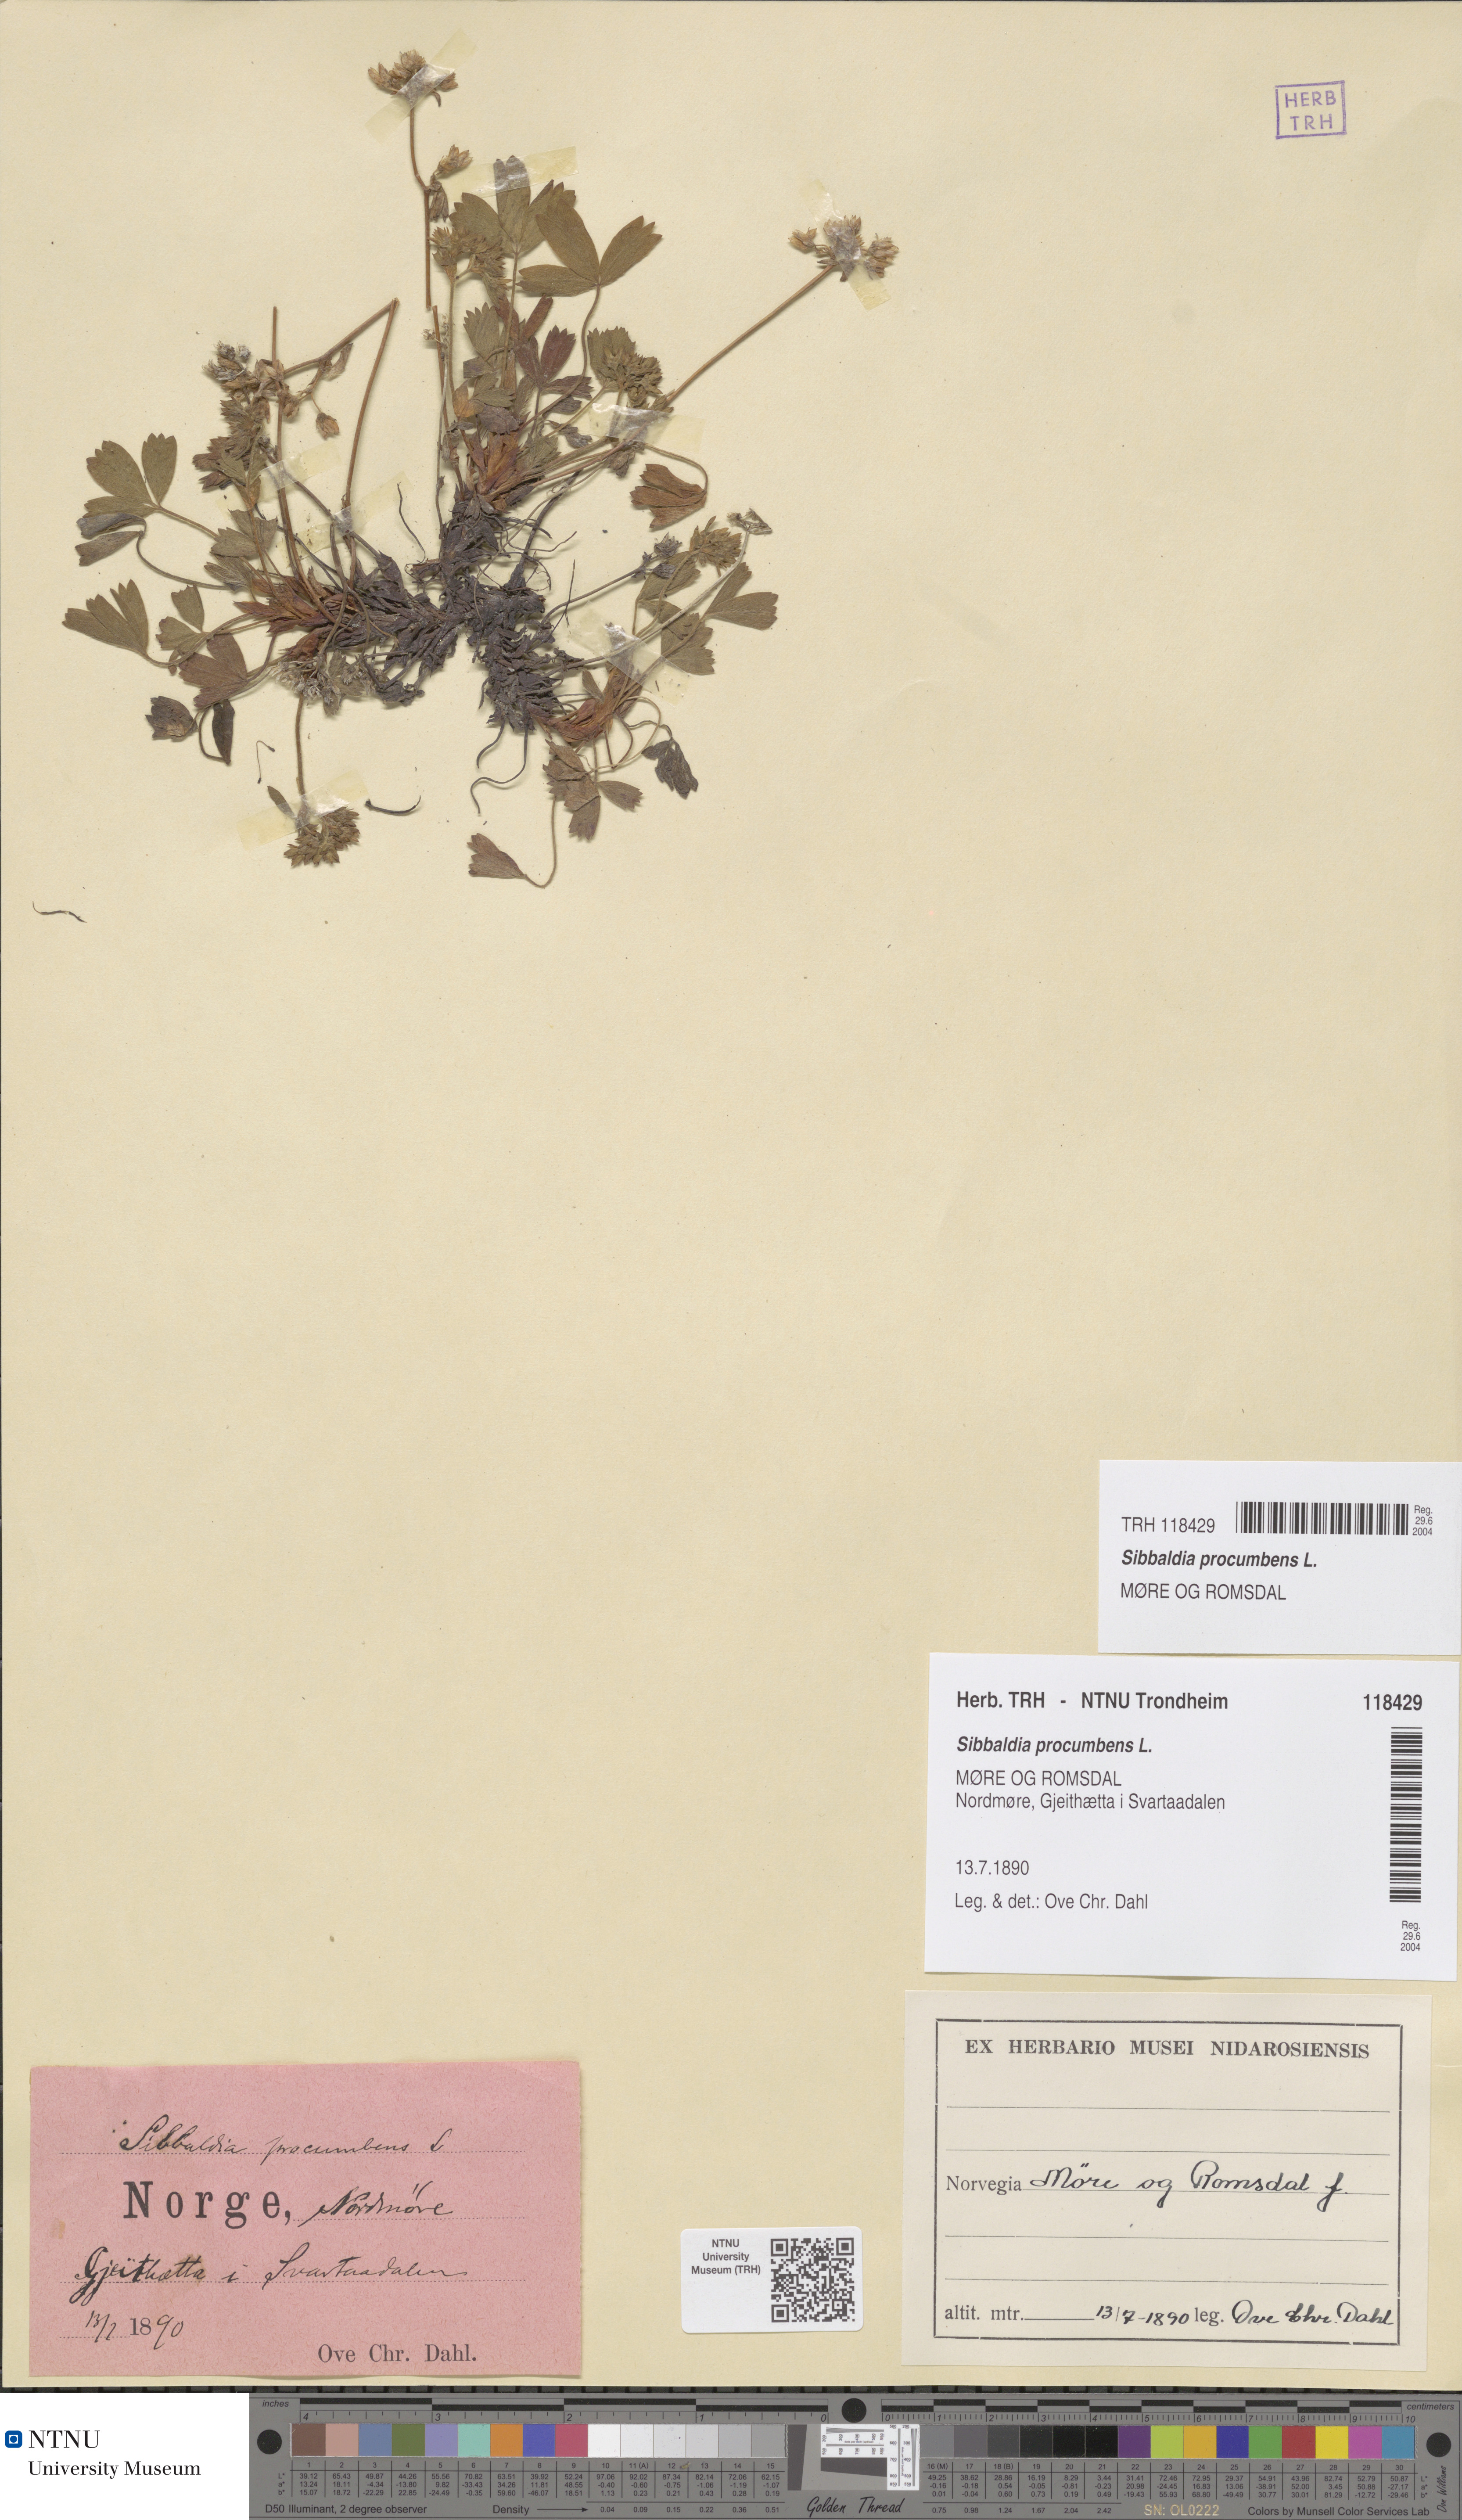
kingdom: Plantae
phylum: Tracheophyta
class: Magnoliopsida
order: Rosales
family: Rosaceae
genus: Sibbaldia
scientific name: Sibbaldia procumbens
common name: Creeping sibbaldia
